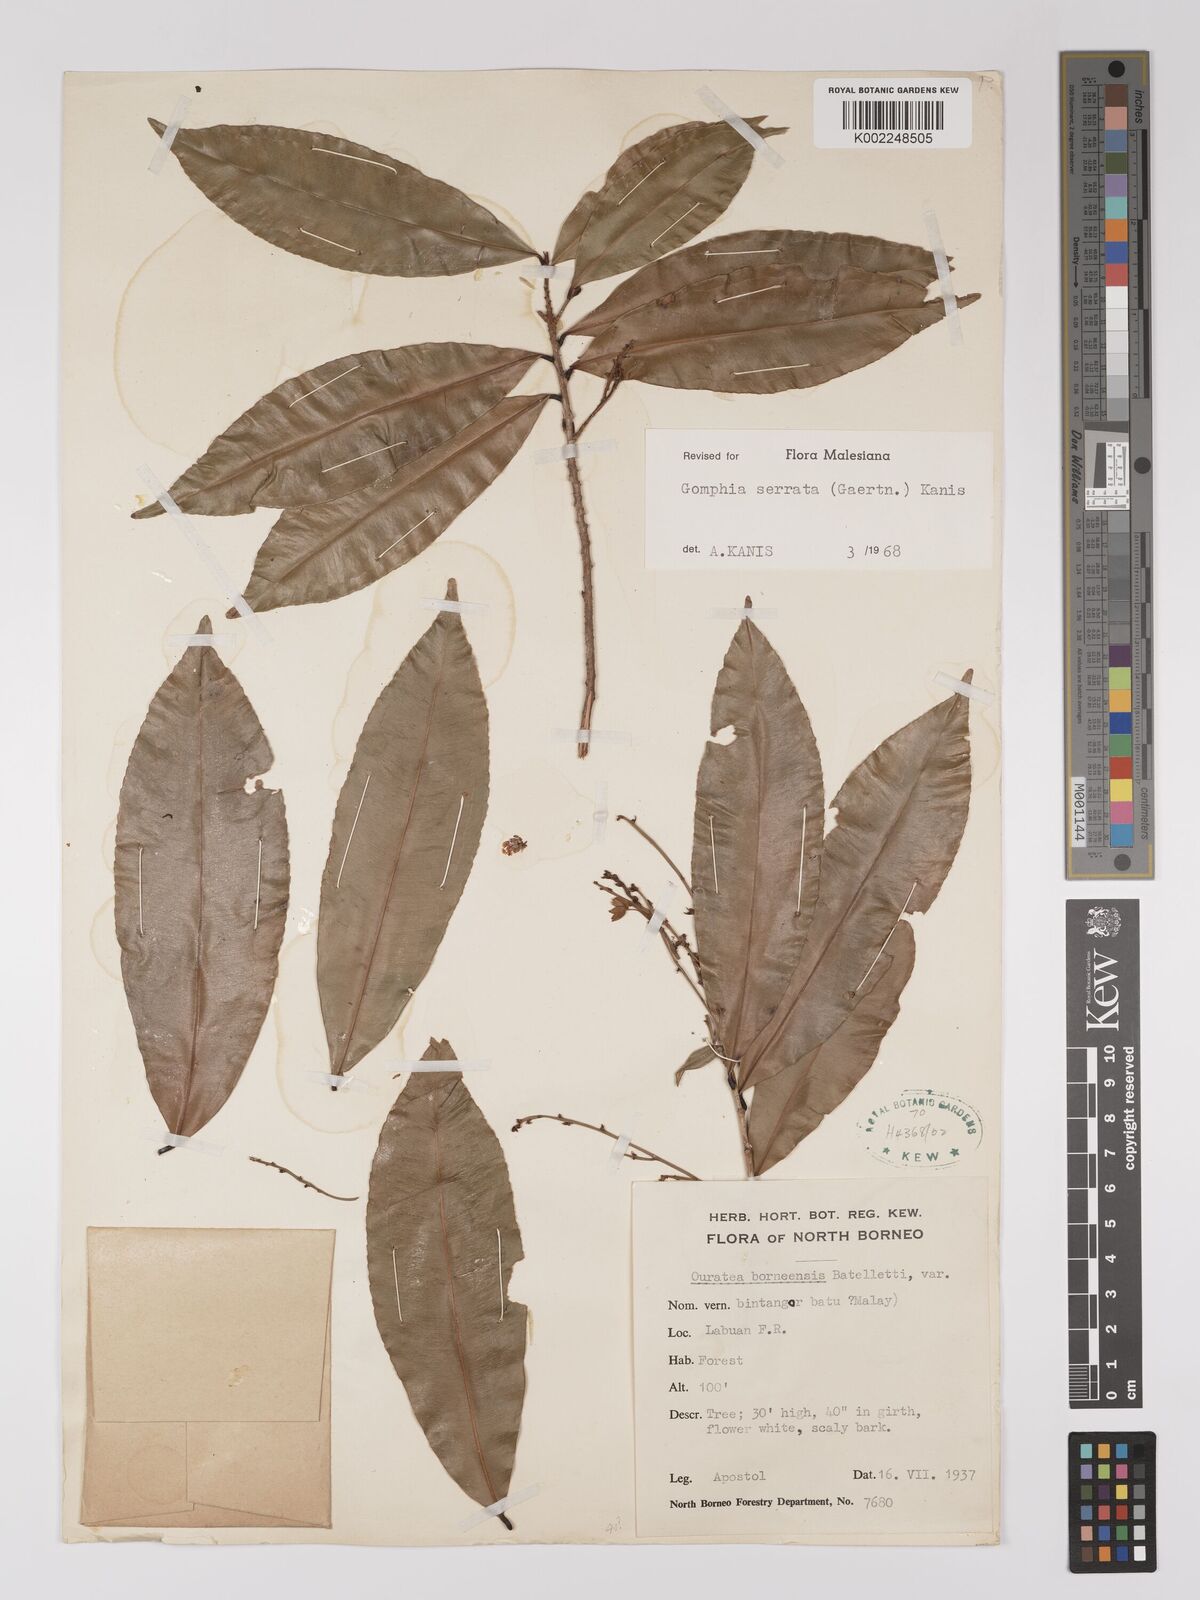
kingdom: Plantae
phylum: Tracheophyta
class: Magnoliopsida
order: Malpighiales
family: Ochnaceae
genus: Gomphia
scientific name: Gomphia serrata
